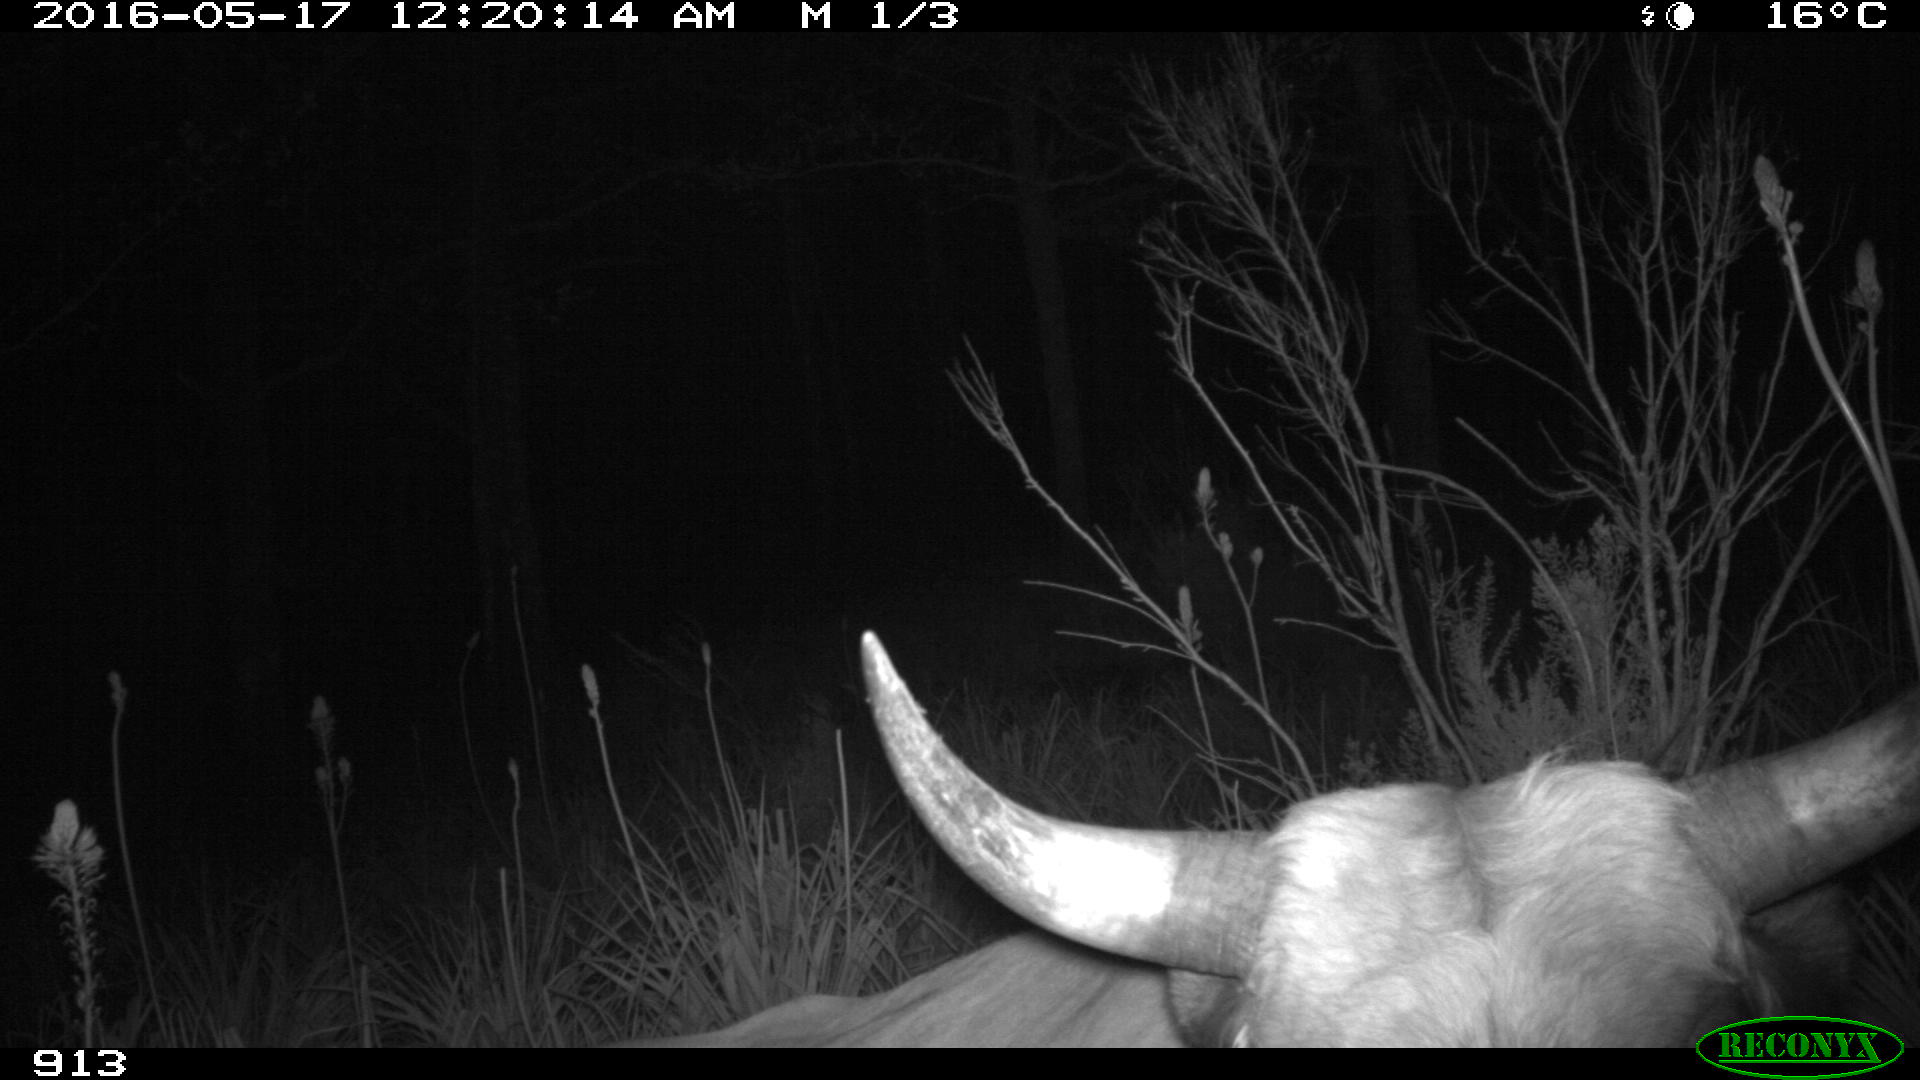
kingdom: Animalia
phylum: Chordata
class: Mammalia
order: Artiodactyla
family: Bovidae
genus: Bos
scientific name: Bos taurus
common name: Domesticated cattle
